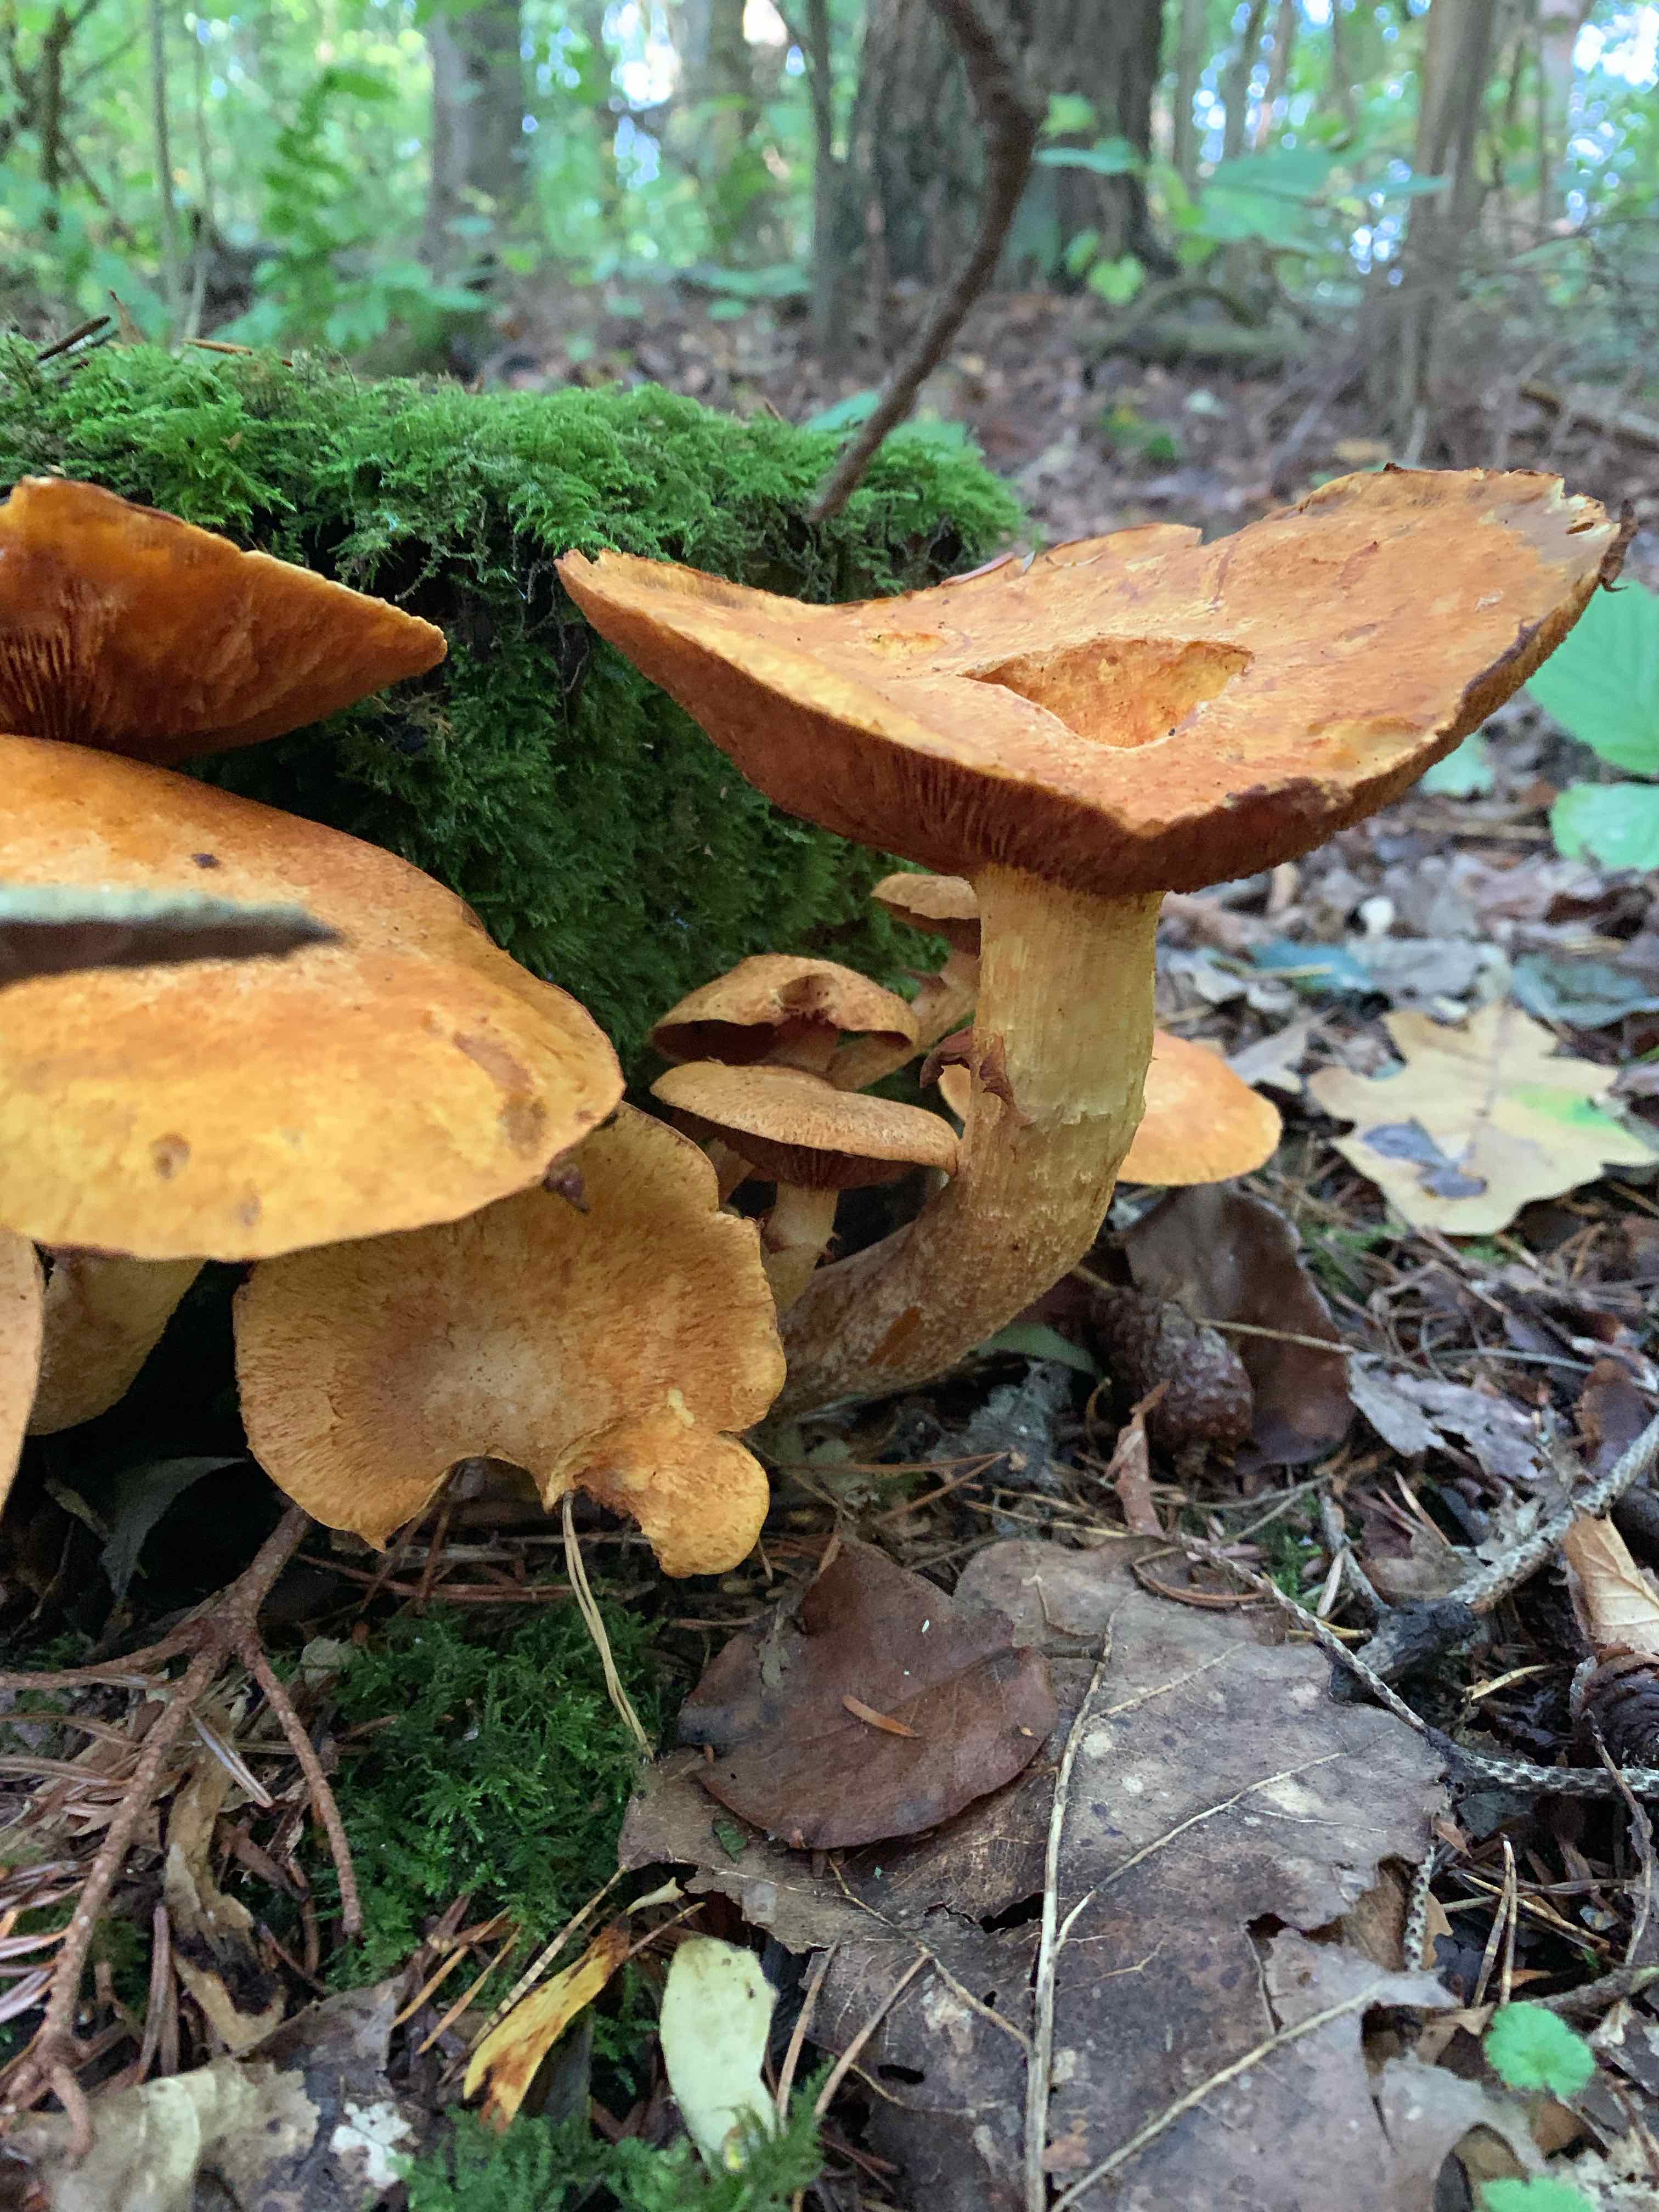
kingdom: Fungi
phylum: Basidiomycota
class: Agaricomycetes
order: Agaricales
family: Hymenogastraceae
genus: Gymnopilus
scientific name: Gymnopilus spectabilis
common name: fibret flammehat
